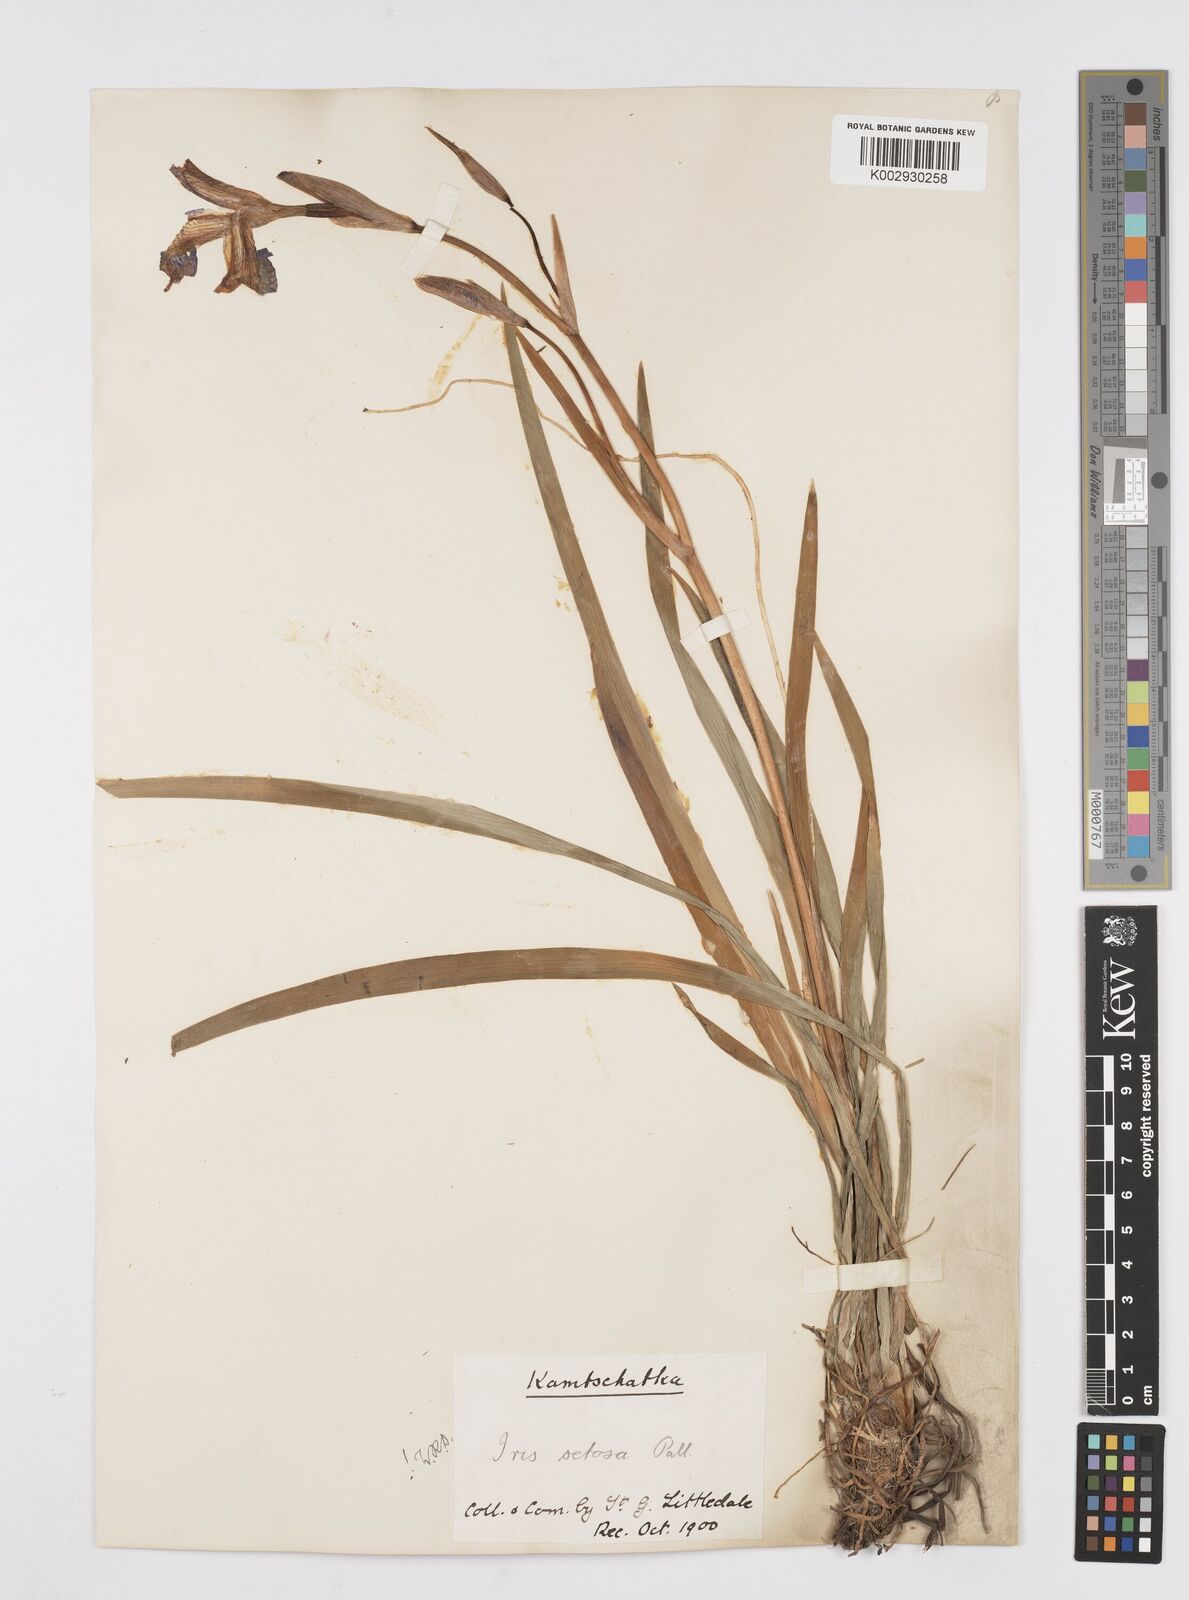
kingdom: Plantae
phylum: Tracheophyta
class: Liliopsida
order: Asparagales
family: Iridaceae
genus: Iris
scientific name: Iris setosa
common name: Arctic blue flag
